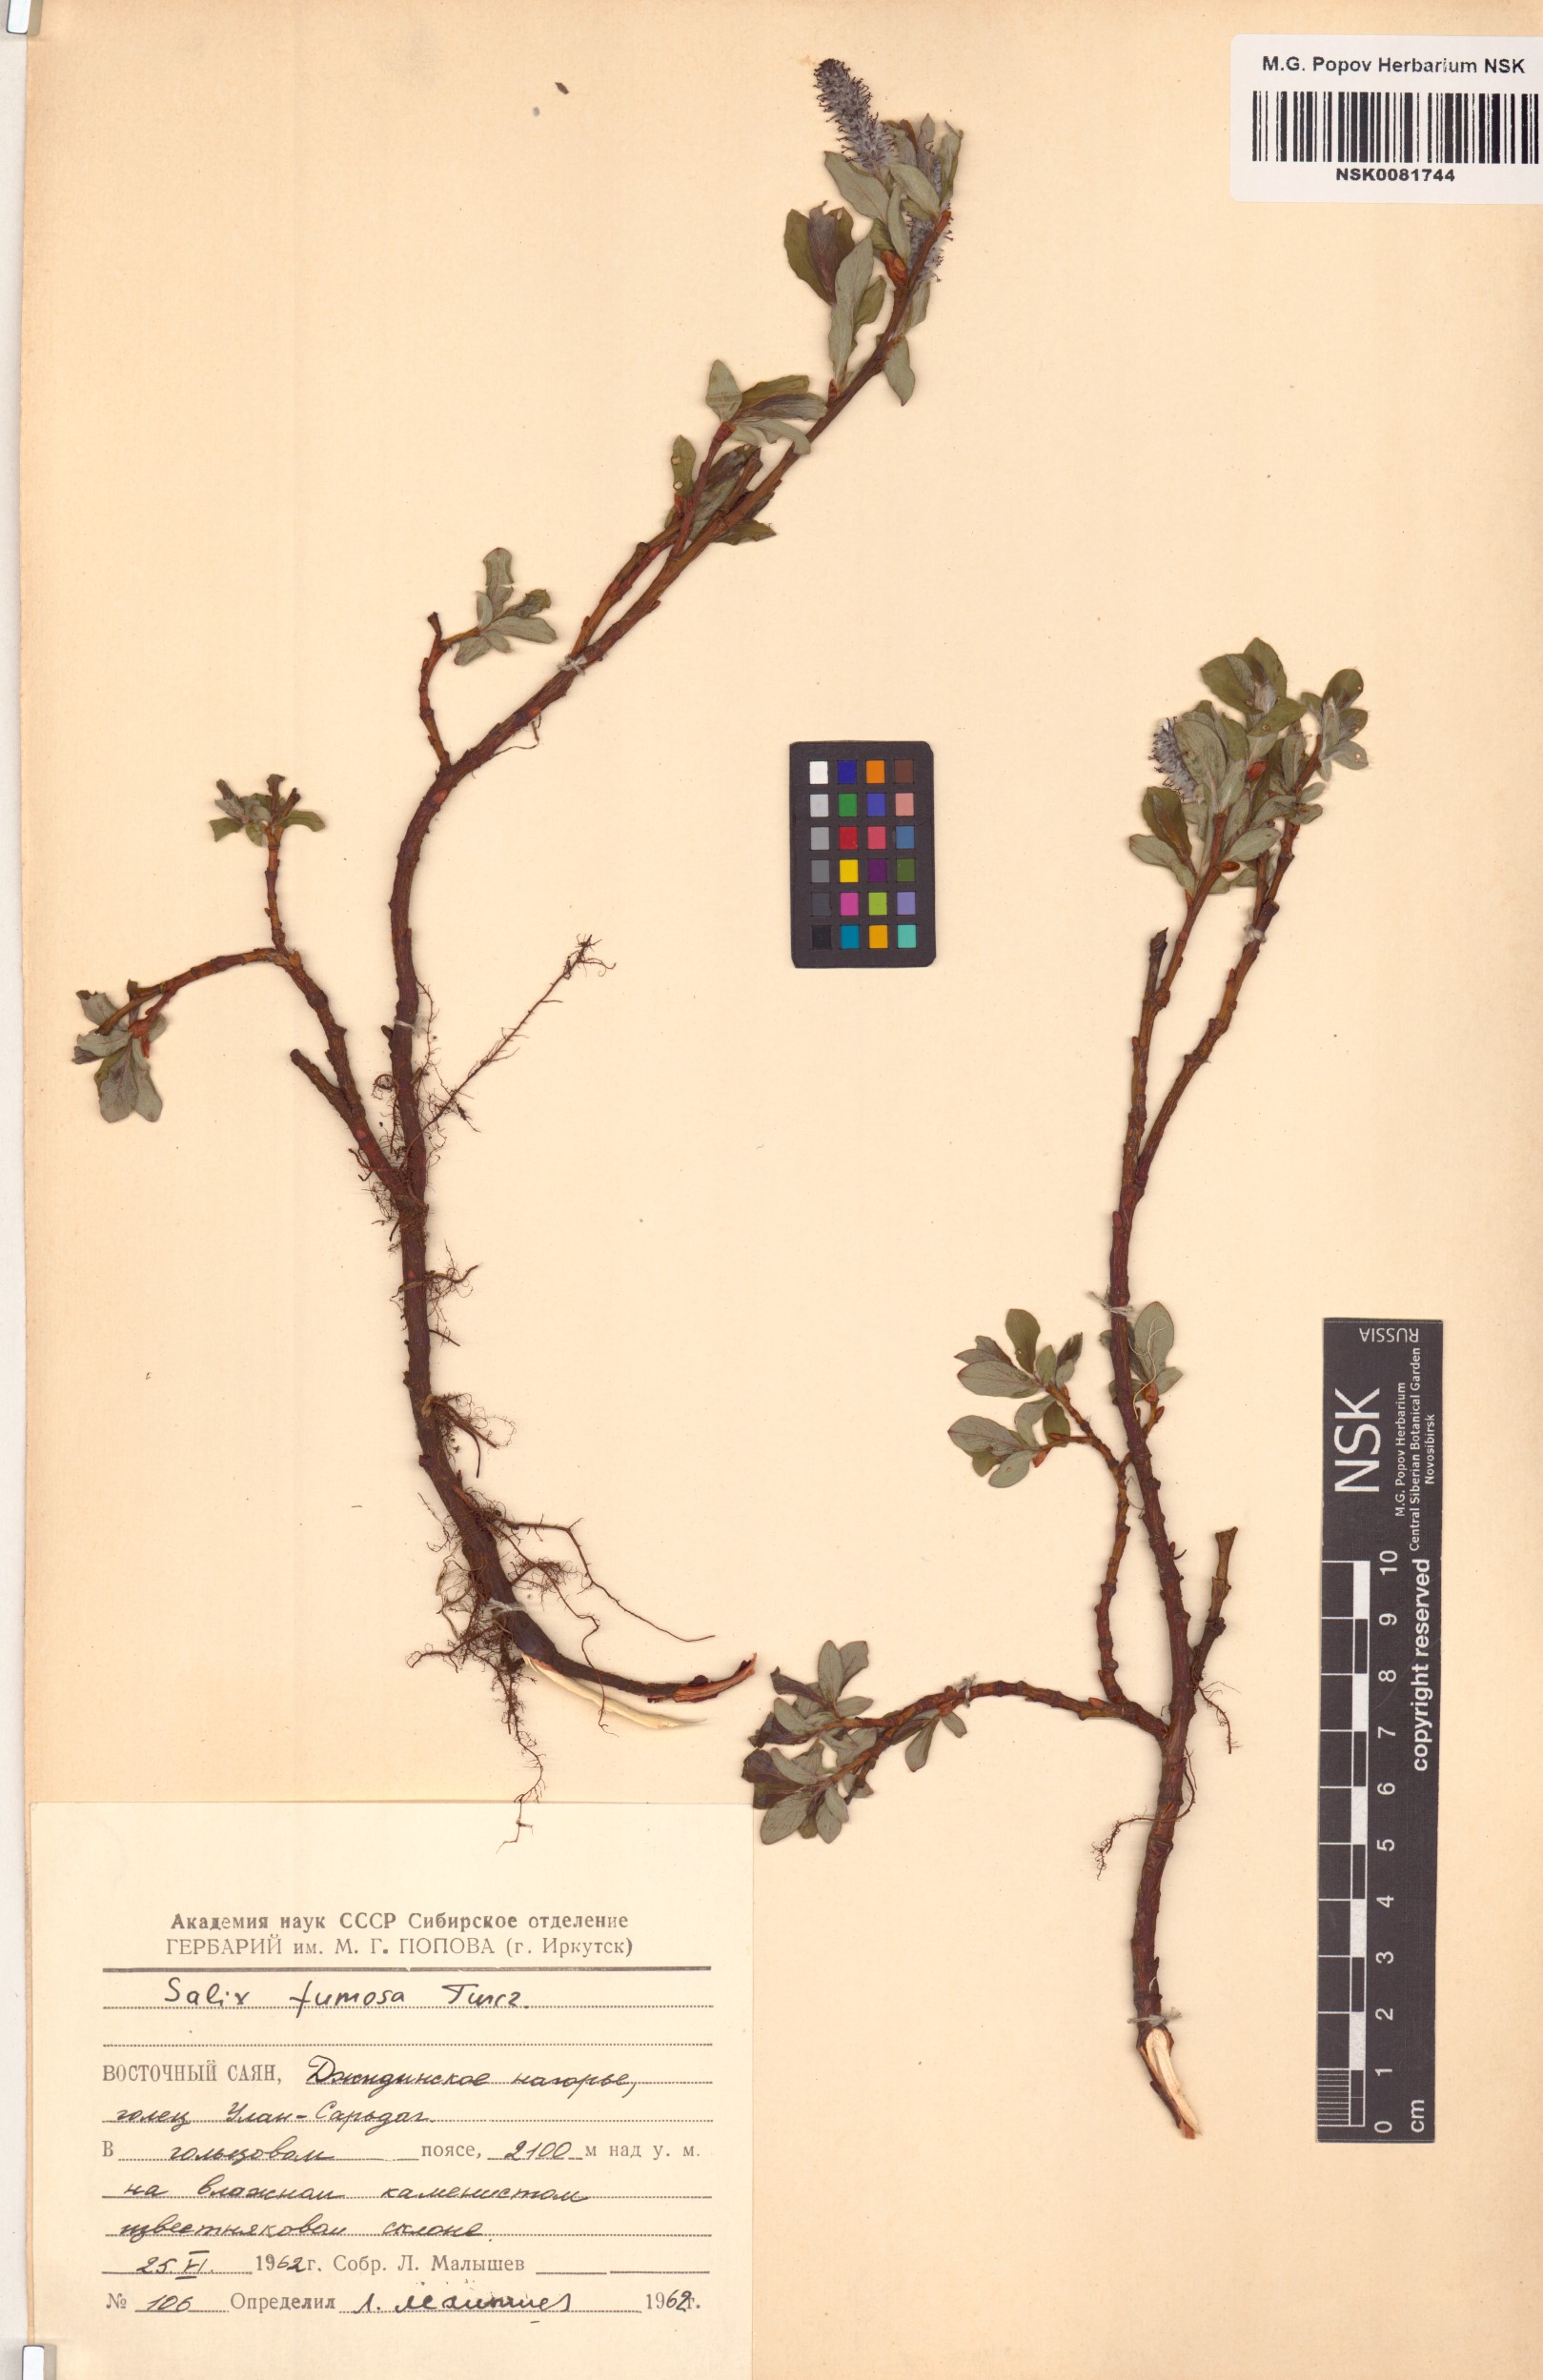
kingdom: Plantae
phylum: Tracheophyta
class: Magnoliopsida
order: Malpighiales
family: Salicaceae
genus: Salix
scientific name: Salix saxatilis
